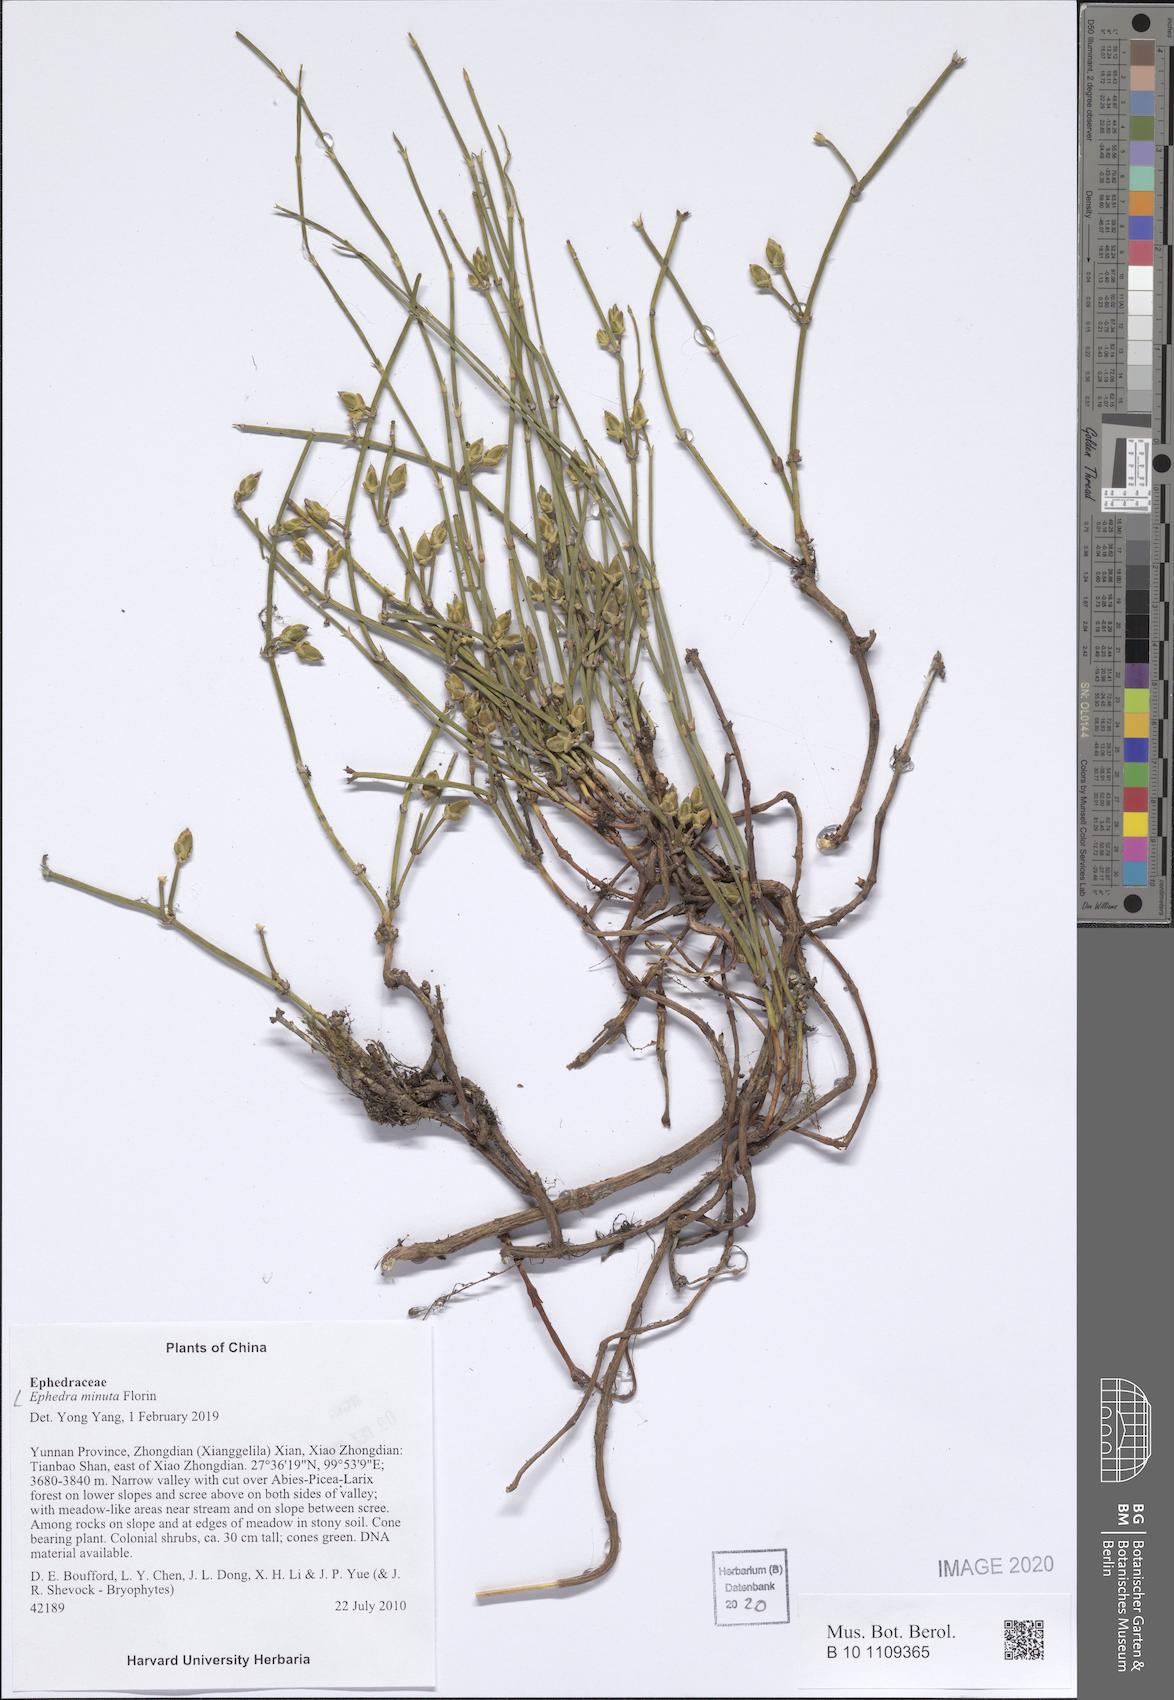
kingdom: Plantae
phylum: Tracheophyta
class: Gnetopsida
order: Ephedrales
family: Ephedraceae
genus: Ephedra
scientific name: Ephedra minuta
